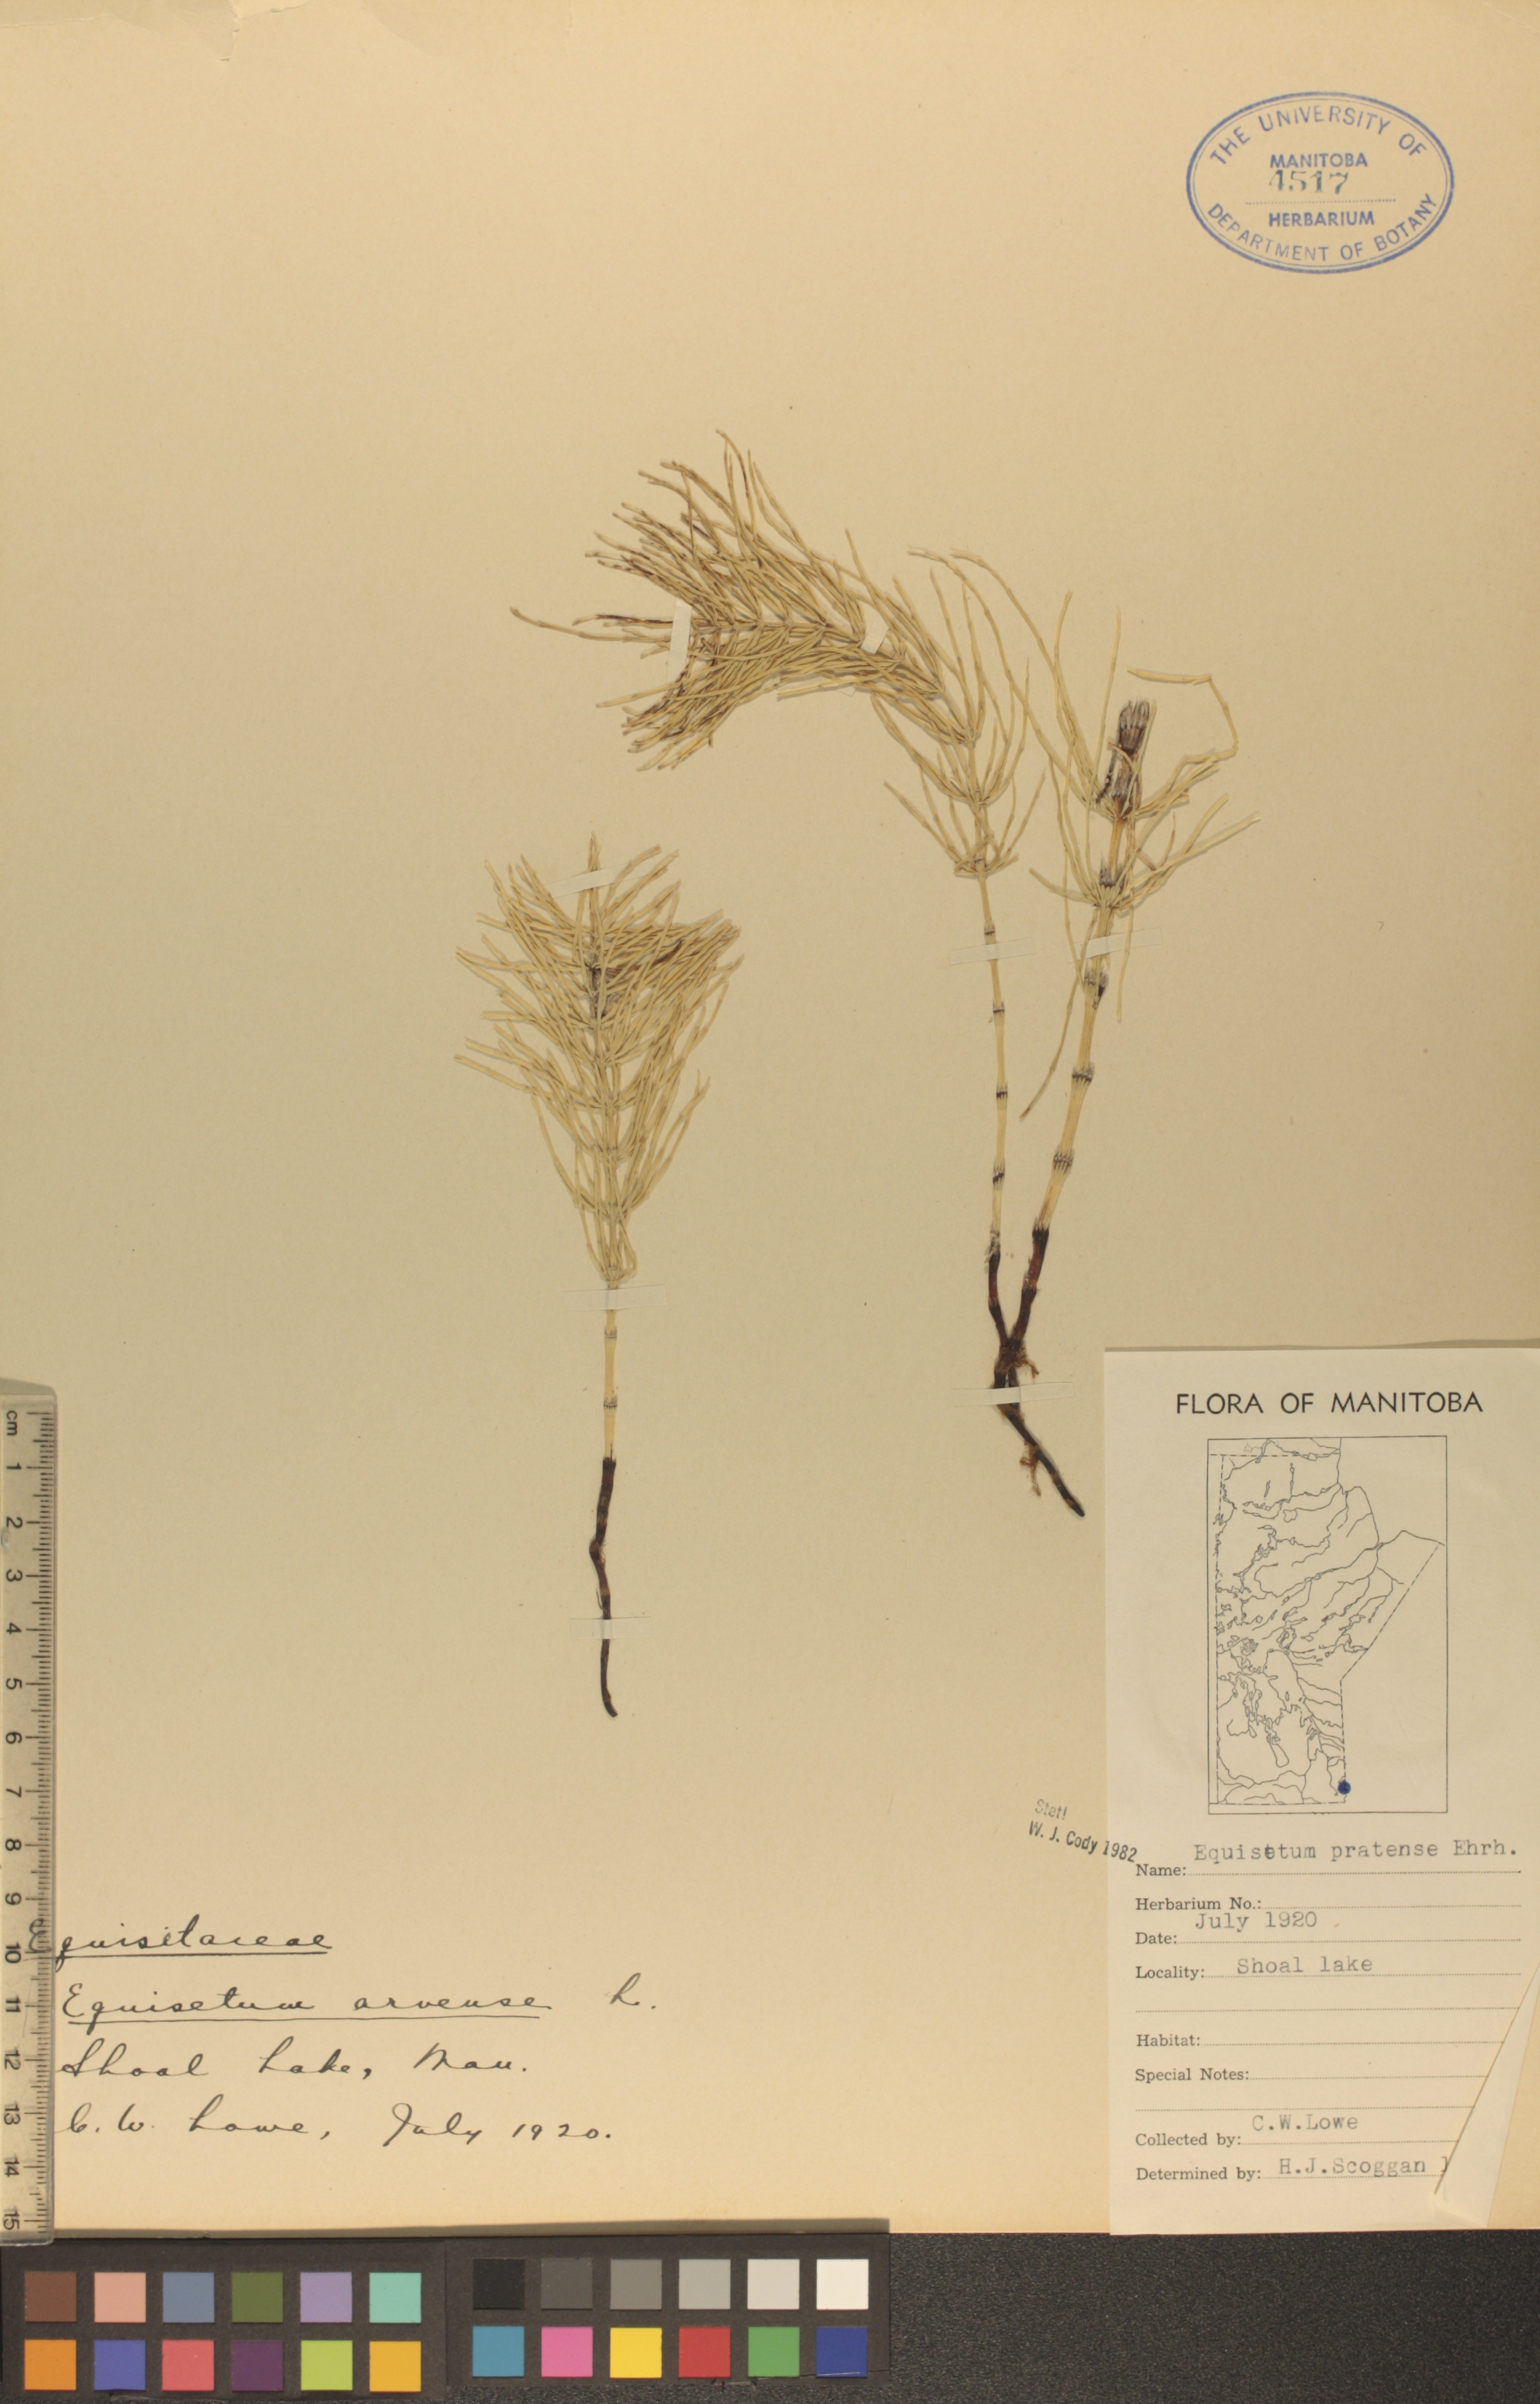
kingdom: Plantae
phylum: Tracheophyta
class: Polypodiopsida
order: Equisetales
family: Equisetaceae
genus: Equisetum
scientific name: Equisetum pratense
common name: Meadow horsetail
